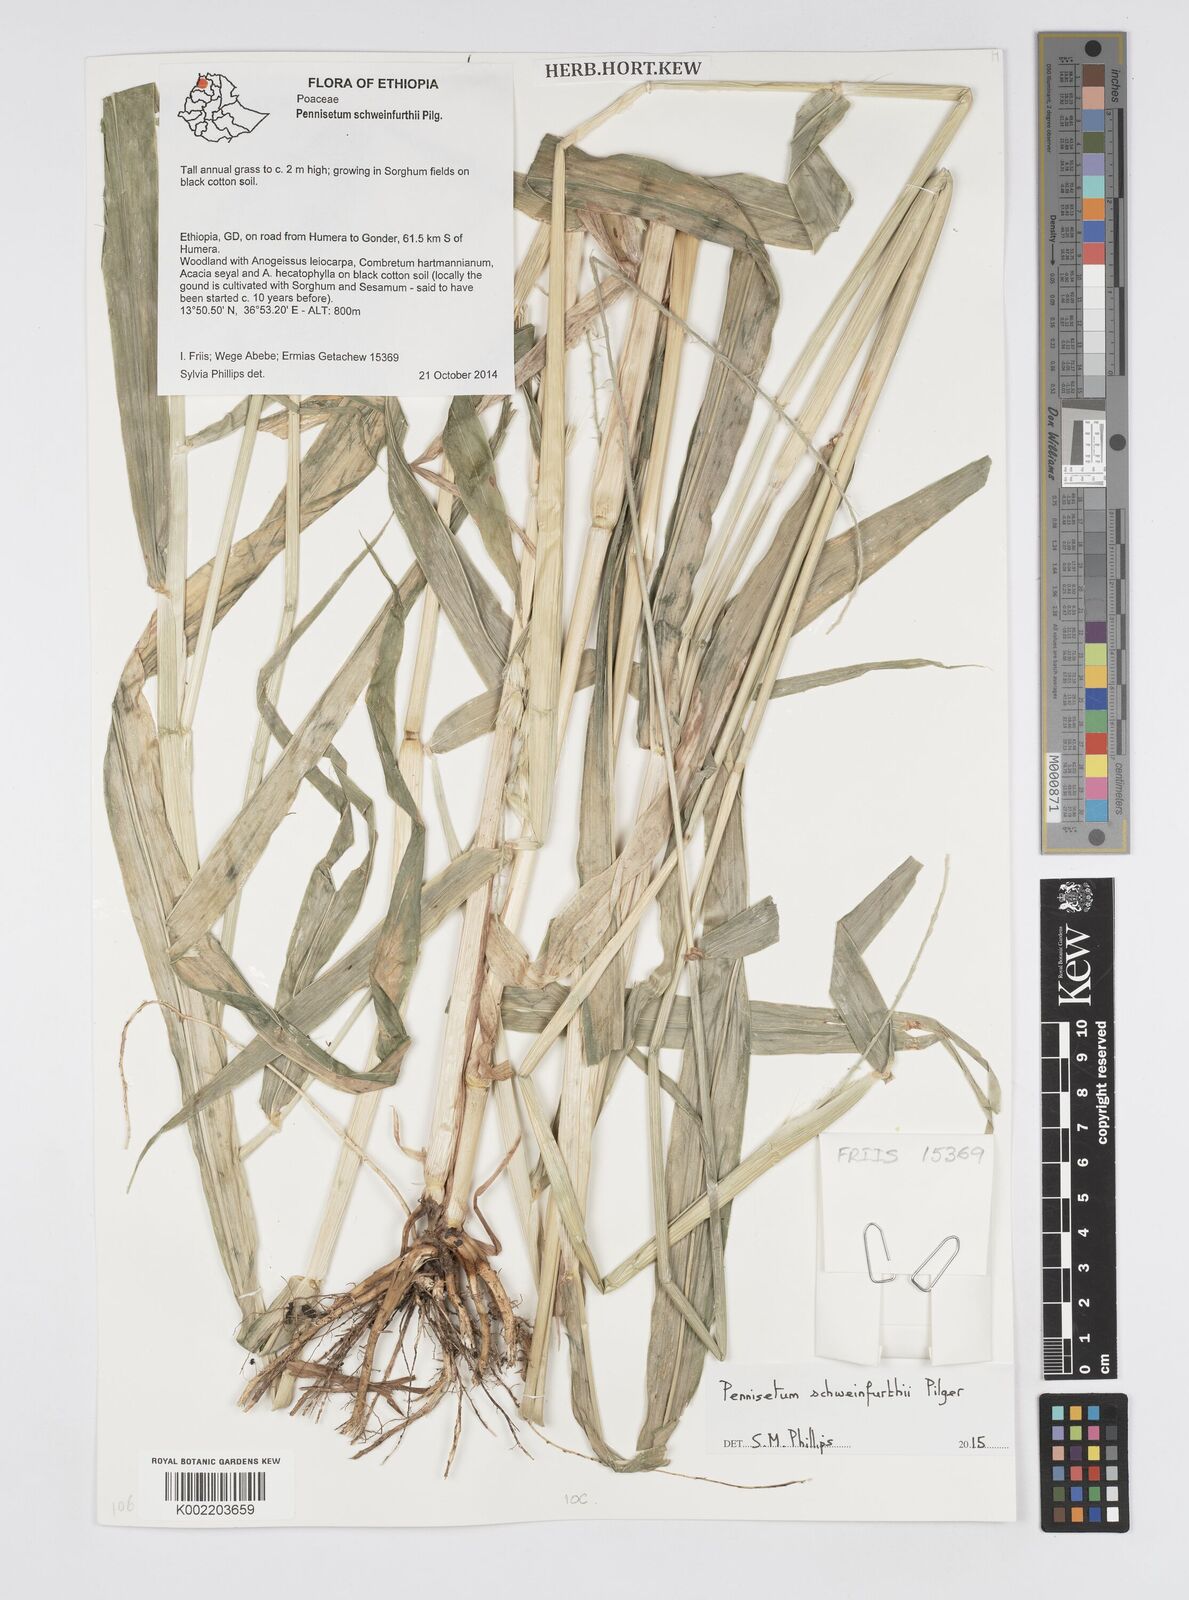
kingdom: Plantae
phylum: Tracheophyta
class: Liliopsida
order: Poales
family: Poaceae
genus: Cenchrus
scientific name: Cenchrus schweinfurthii
